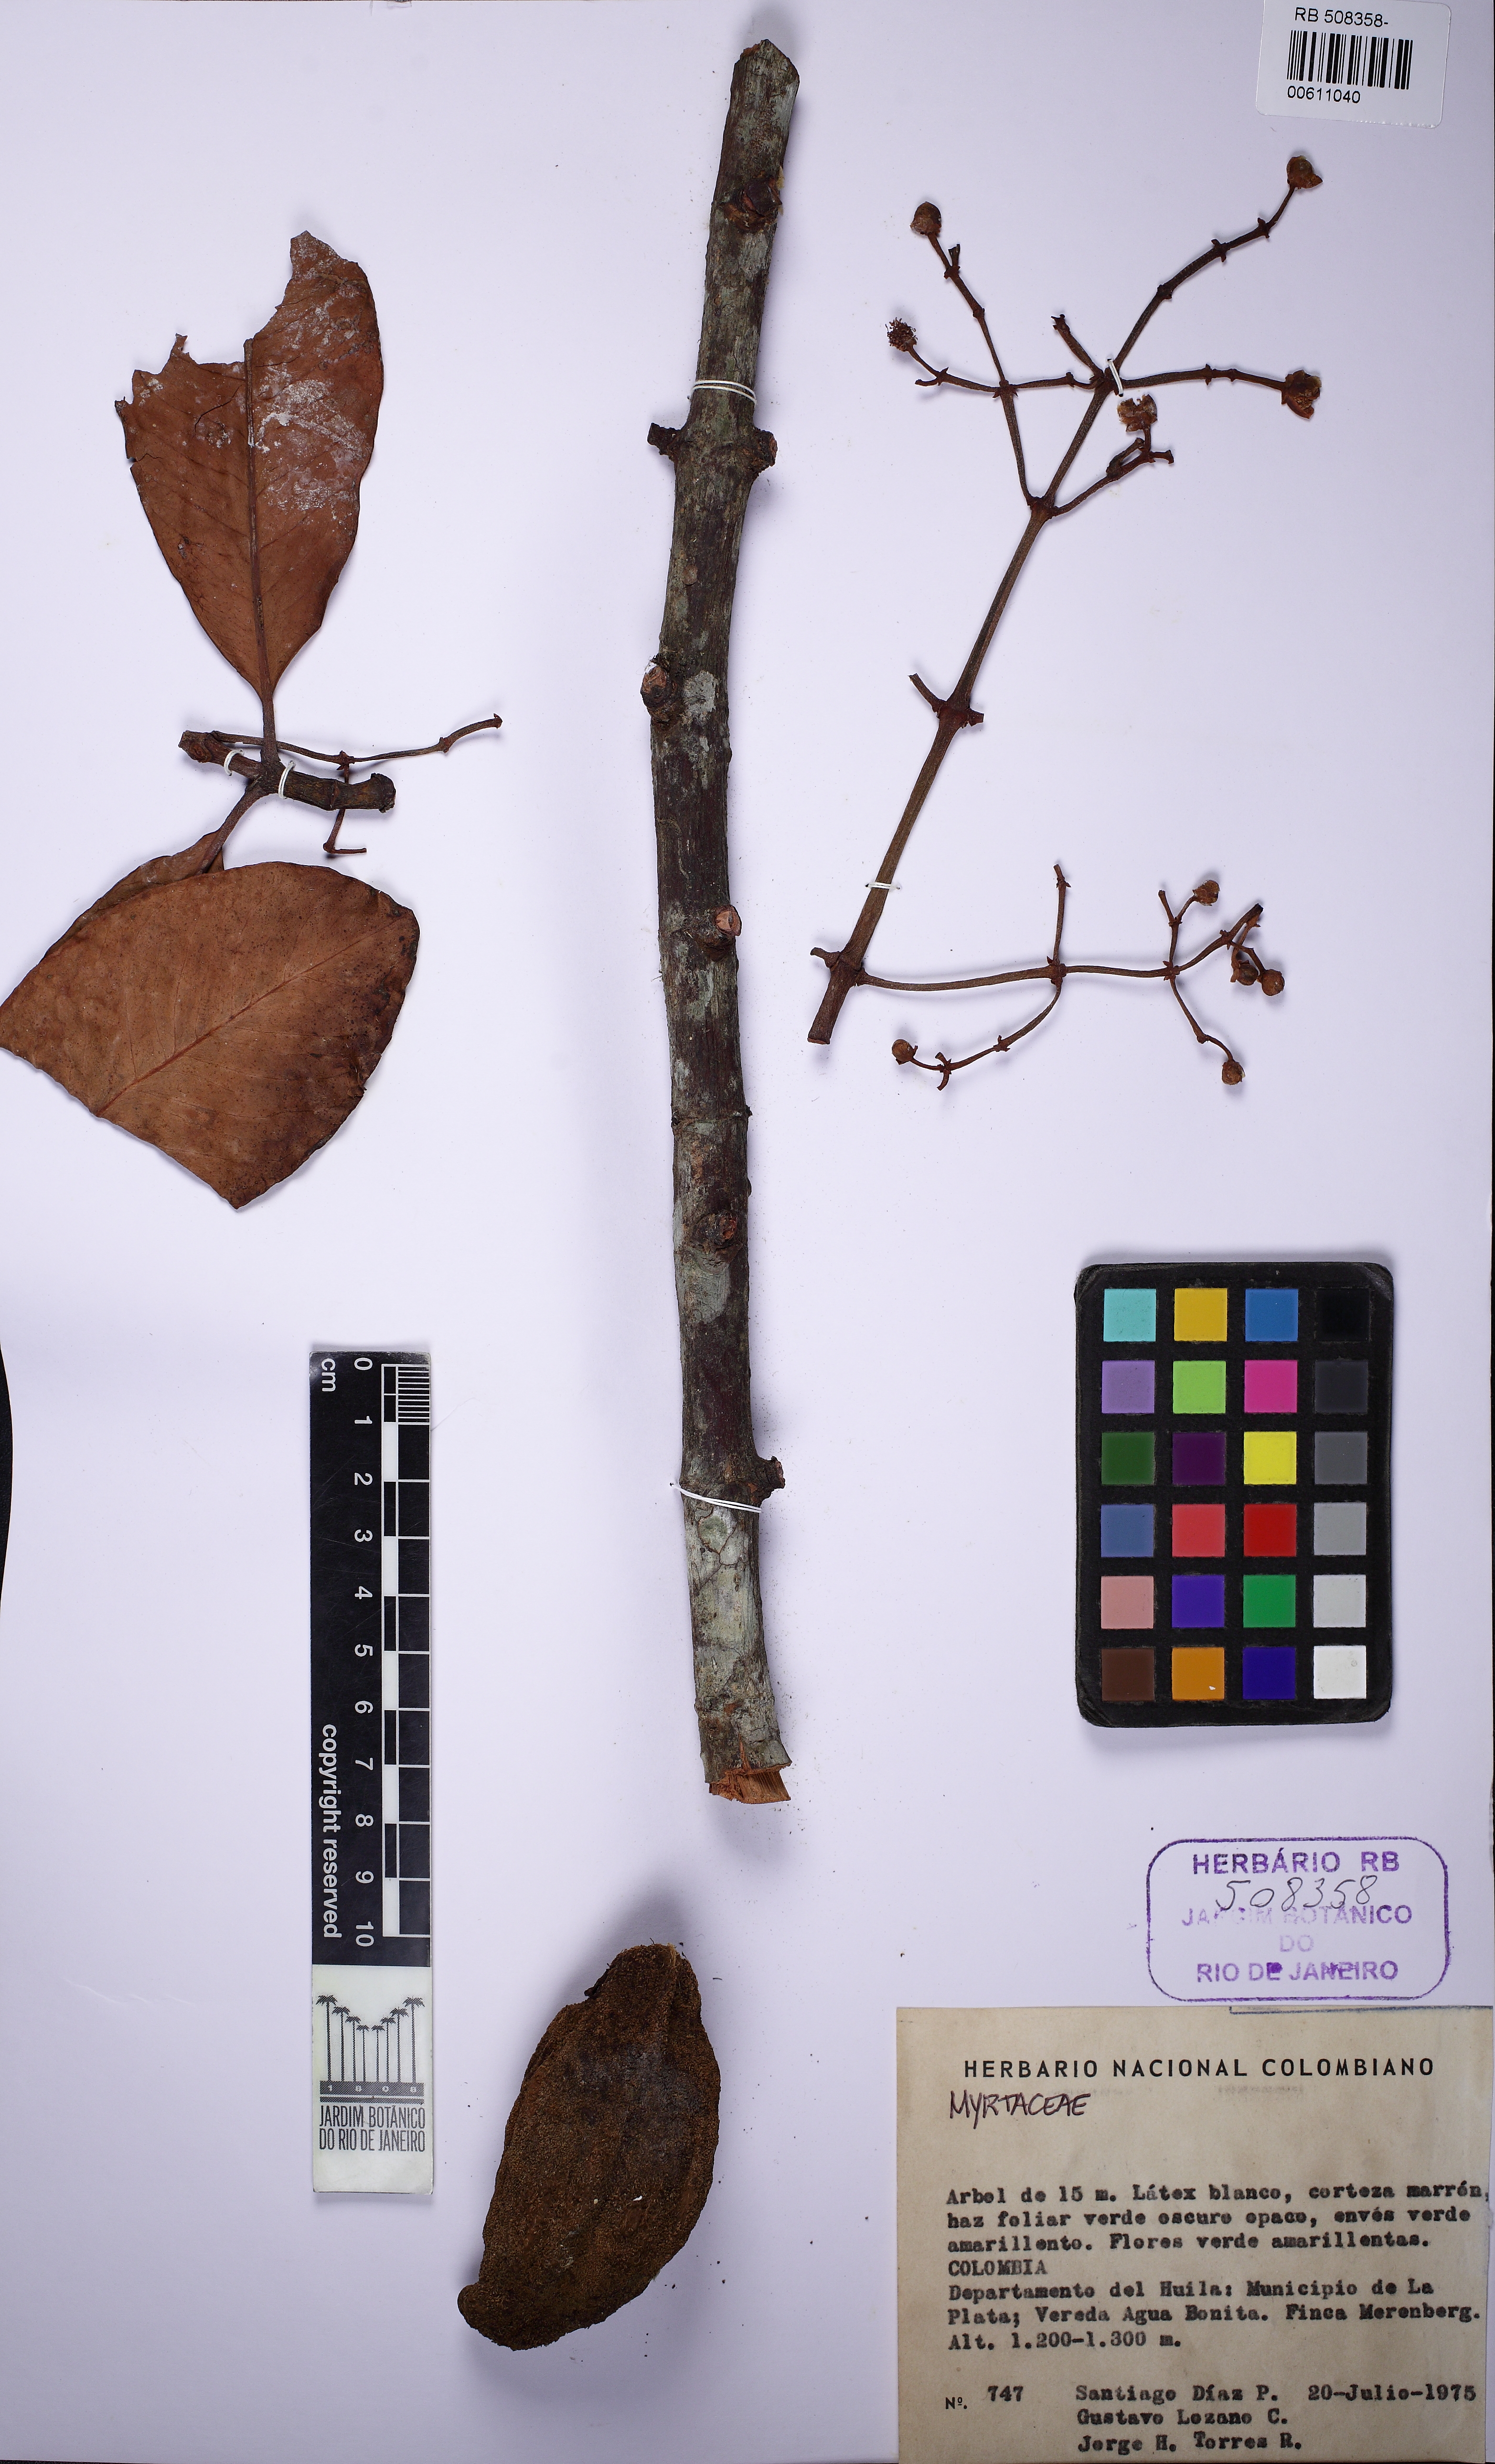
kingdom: Plantae
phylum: Tracheophyta
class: Magnoliopsida
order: Malpighiales
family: Clusiaceae
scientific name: Clusiaceae
